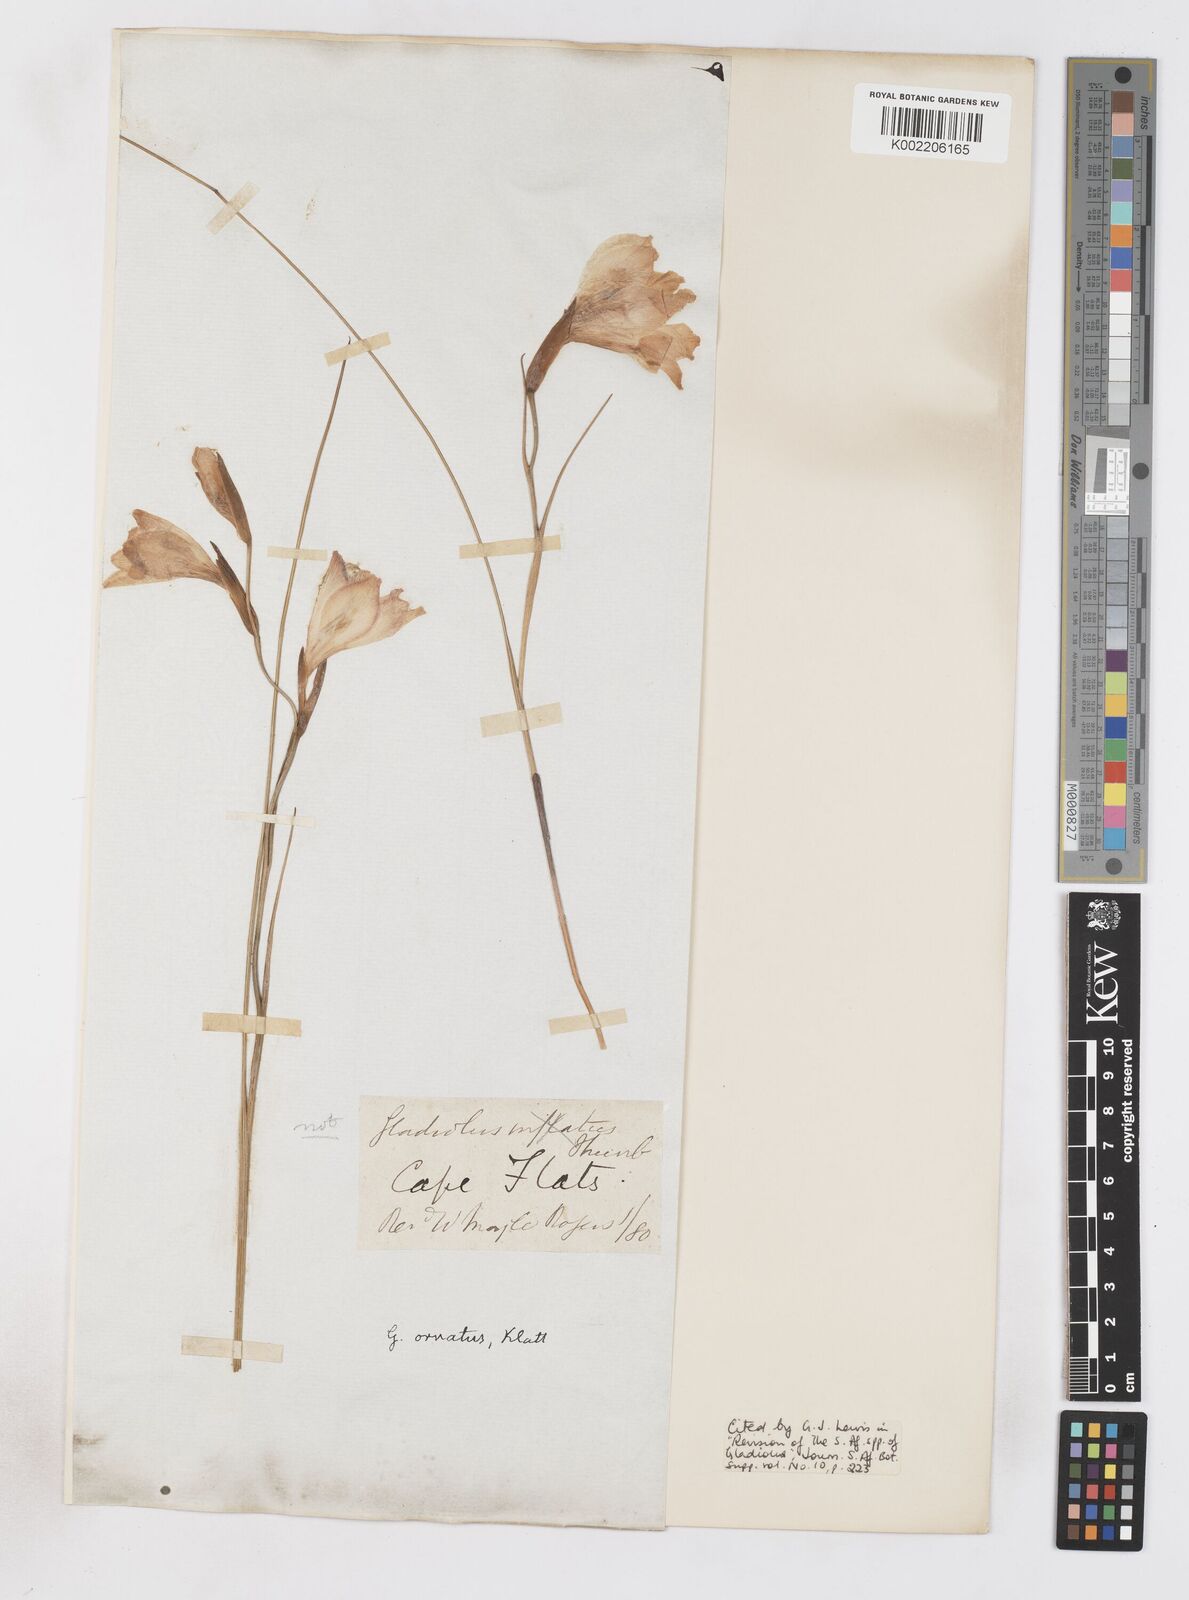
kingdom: Plantae
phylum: Tracheophyta
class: Liliopsida
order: Asparagales
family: Iridaceae
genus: Gladiolus
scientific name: Gladiolus ornatus
